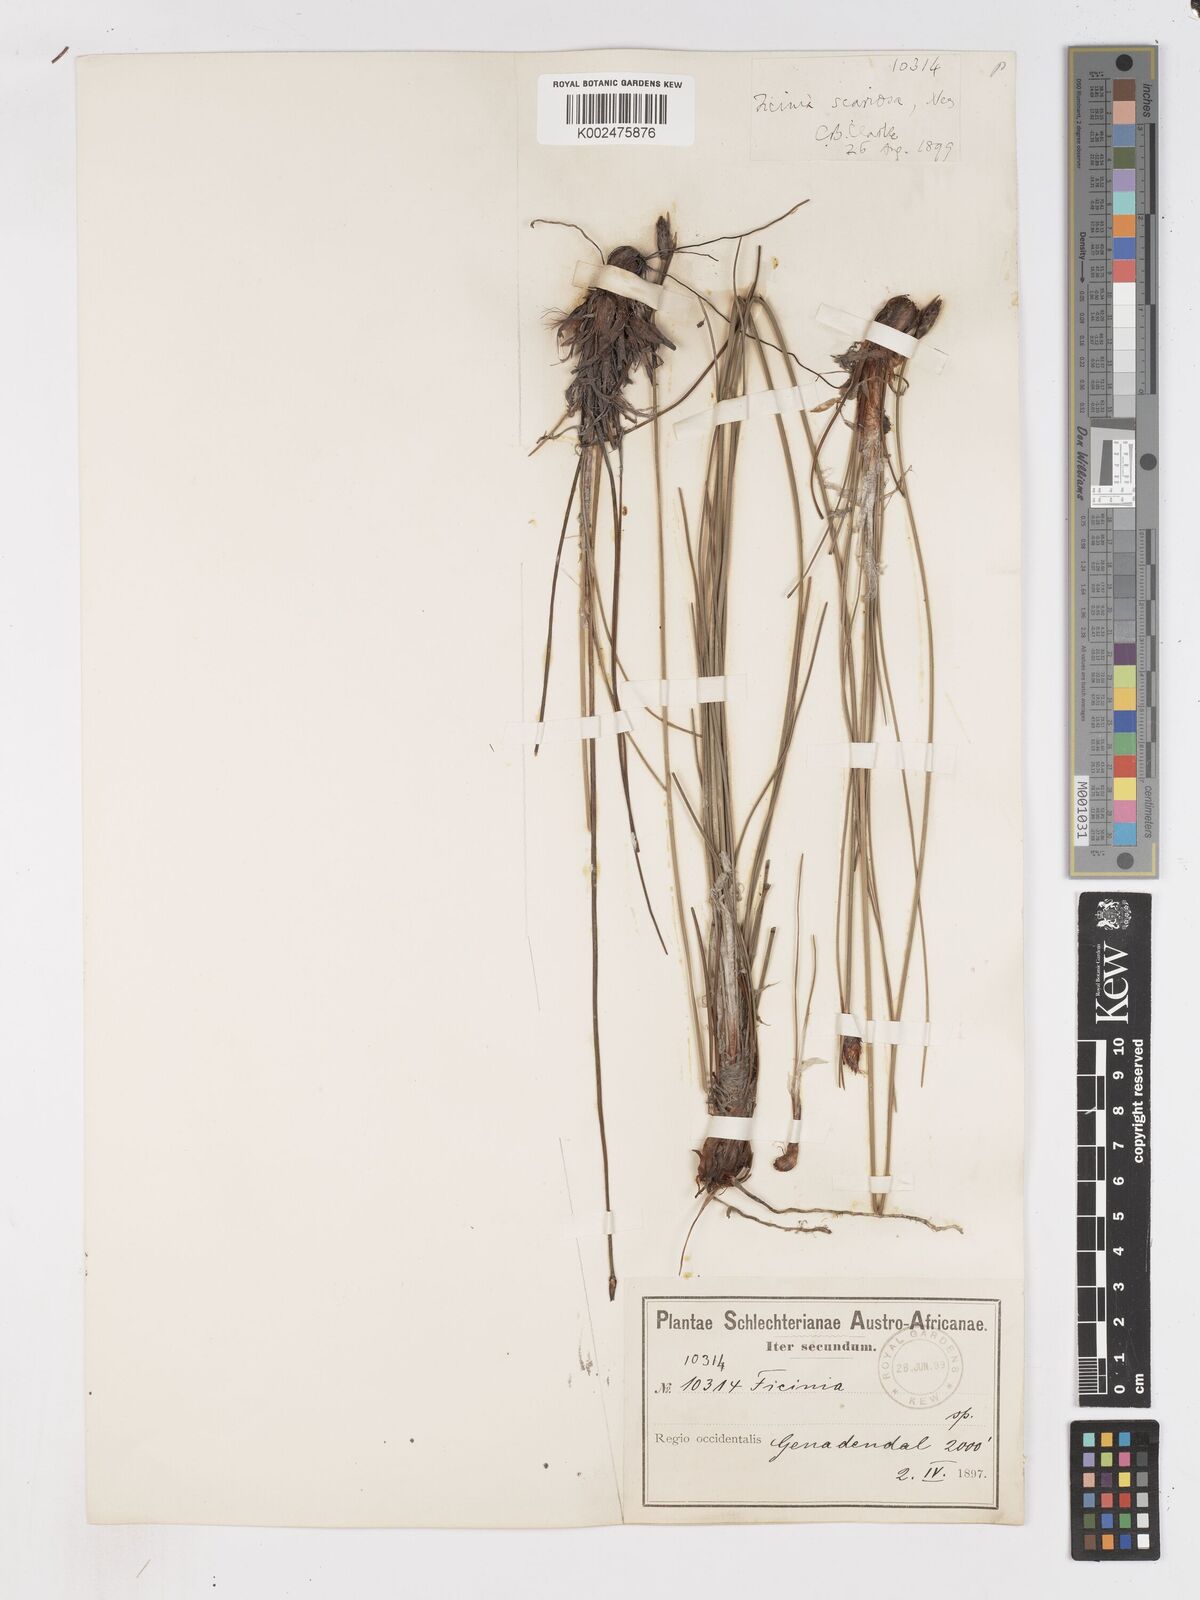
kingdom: Plantae
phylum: Tracheophyta
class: Liliopsida
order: Poales
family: Cyperaceae
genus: Ficinia
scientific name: Ficinia deusta
